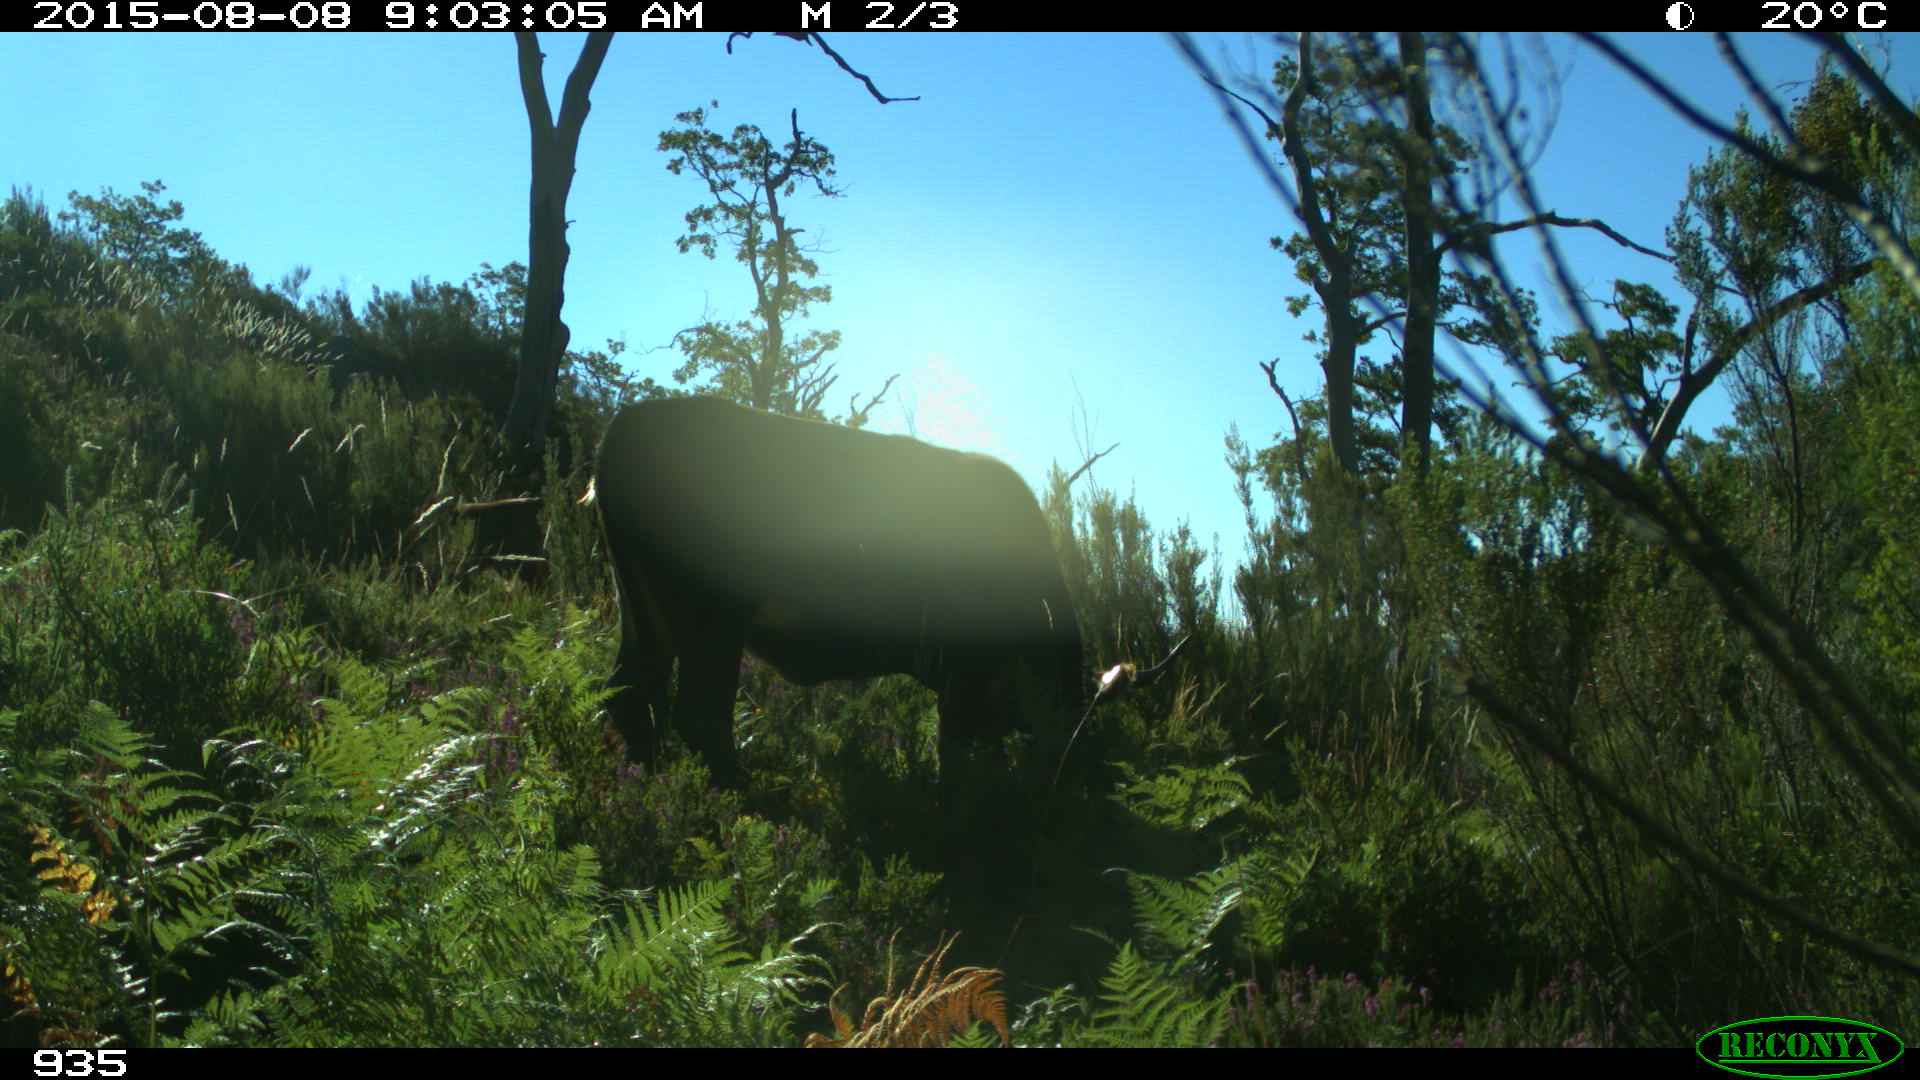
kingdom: Animalia
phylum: Chordata
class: Mammalia
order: Artiodactyla
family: Bovidae
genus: Bos
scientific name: Bos taurus
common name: Domesticated cattle
